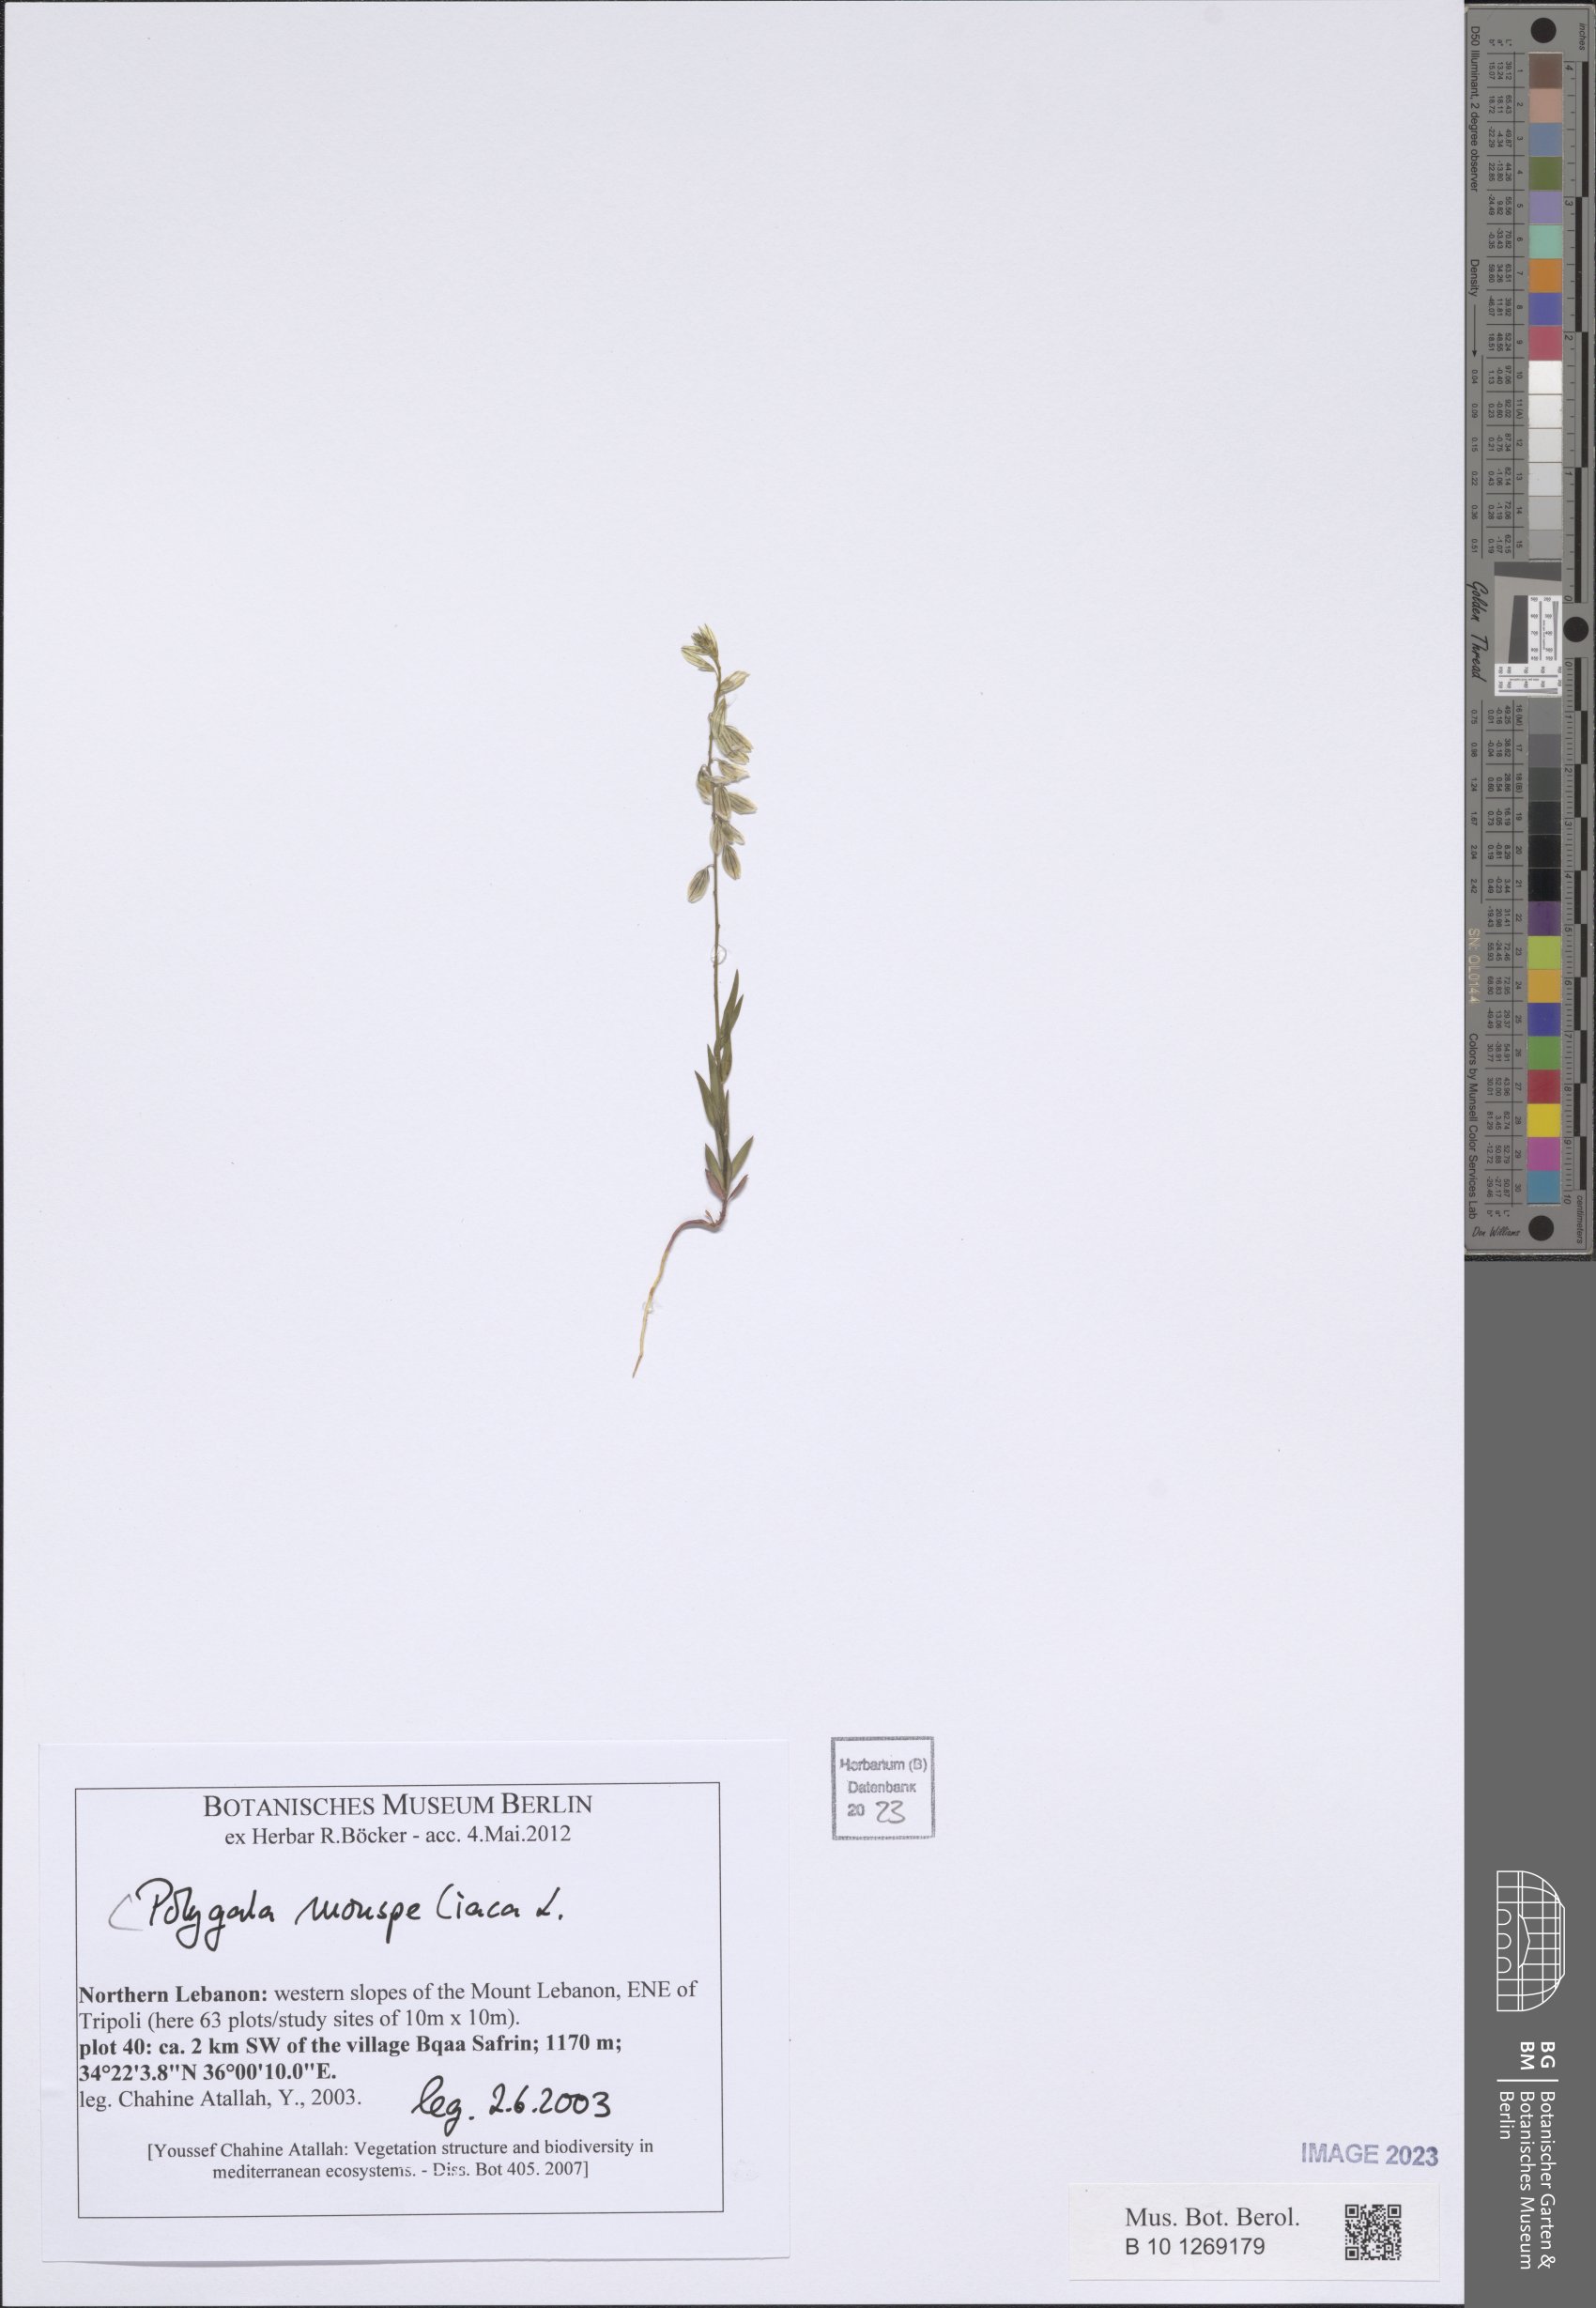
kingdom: Plantae
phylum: Tracheophyta
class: Magnoliopsida
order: Fabales
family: Polygalaceae
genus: Polygala
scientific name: Polygala monspeliaca
